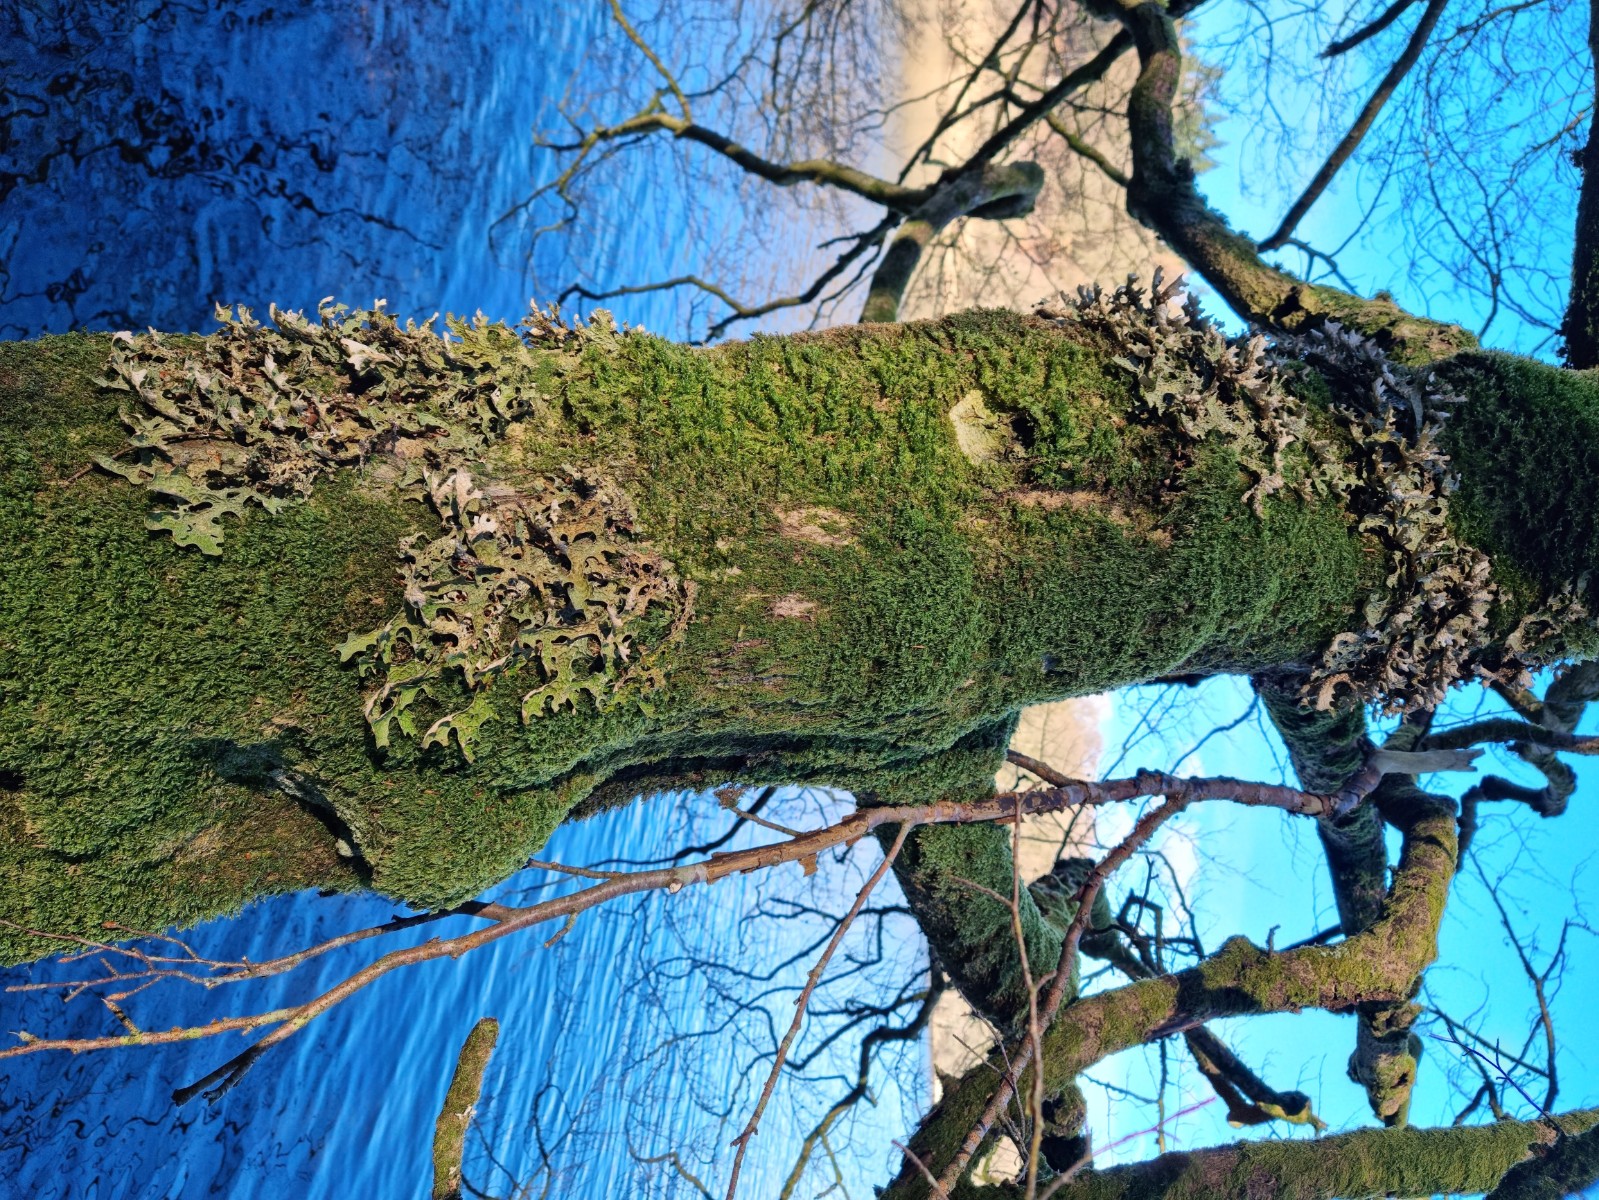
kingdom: Fungi
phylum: Ascomycota
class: Lecanoromycetes
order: Peltigerales
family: Lobariaceae
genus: Lobaria
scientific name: Lobaria pulmonaria
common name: almindelig lungelav
